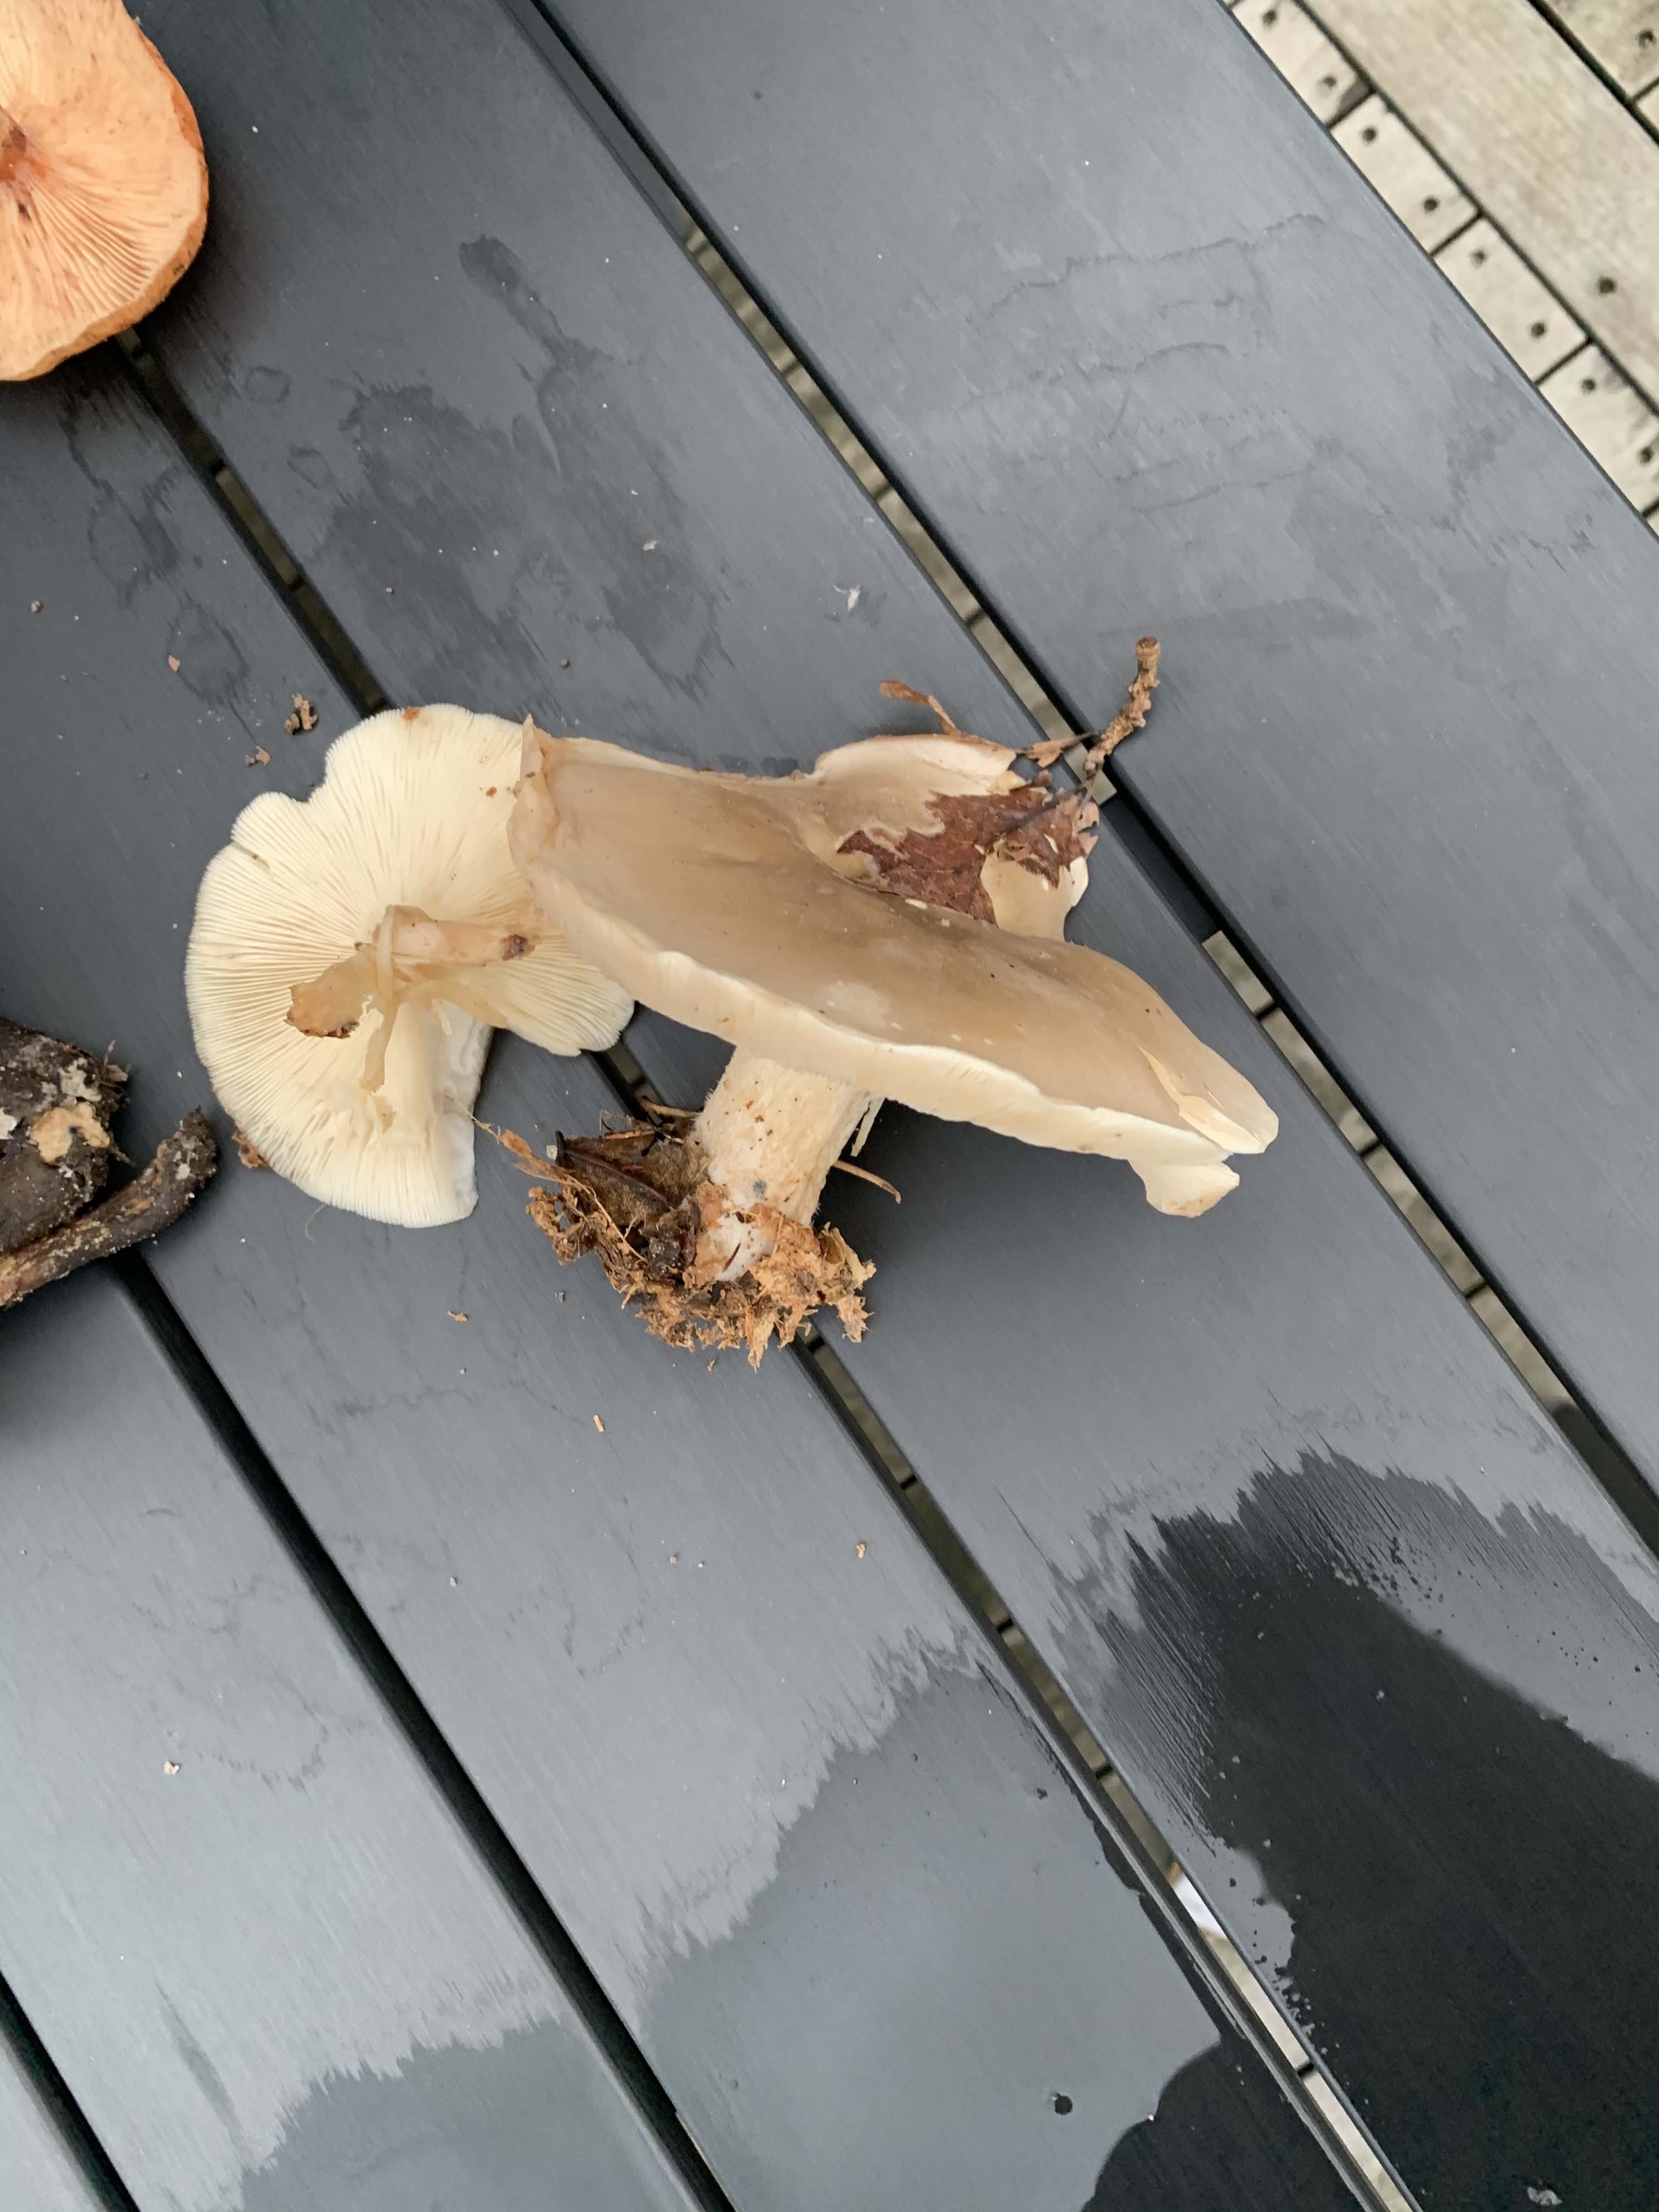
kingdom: Fungi
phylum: Basidiomycota
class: Agaricomycetes
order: Agaricales
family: Tricholomataceae
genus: Clitocybe
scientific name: Clitocybe nebularis
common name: tåge-tragthat
